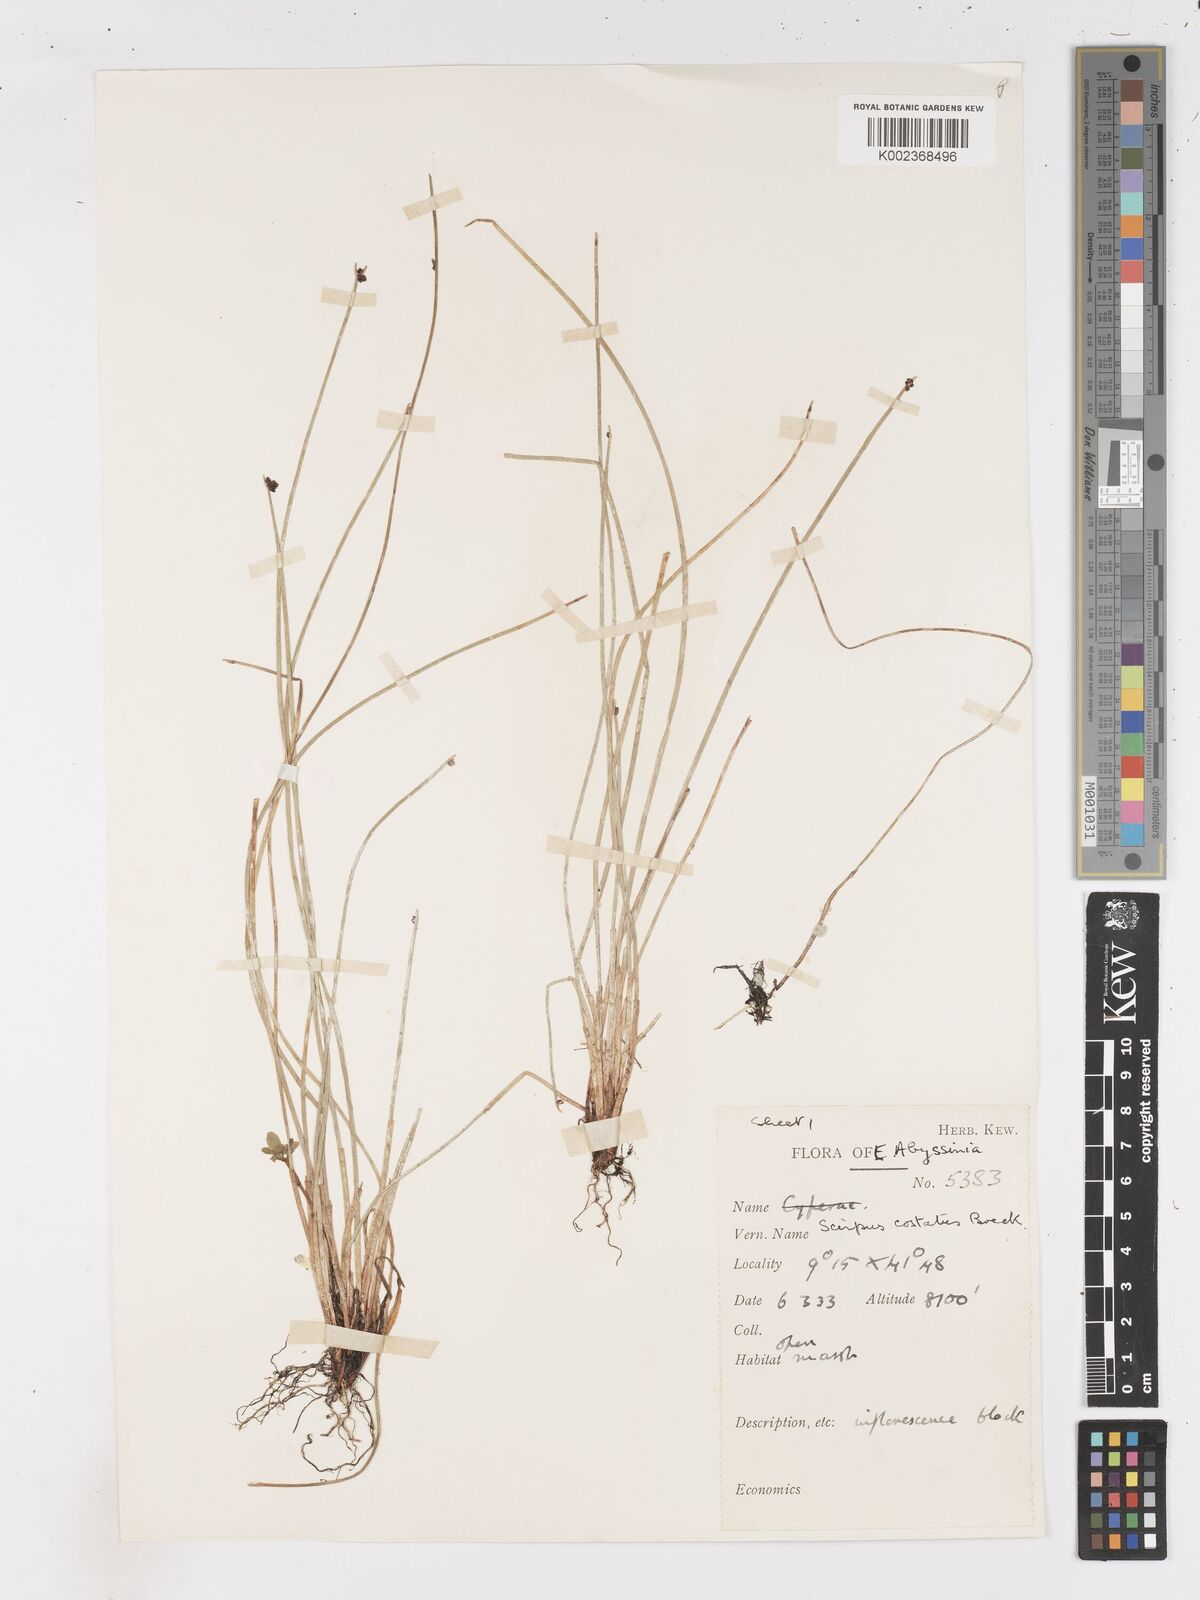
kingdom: Plantae
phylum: Tracheophyta
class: Liliopsida
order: Poales
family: Cyperaceae
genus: Isolepis
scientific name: Isolepis costata
